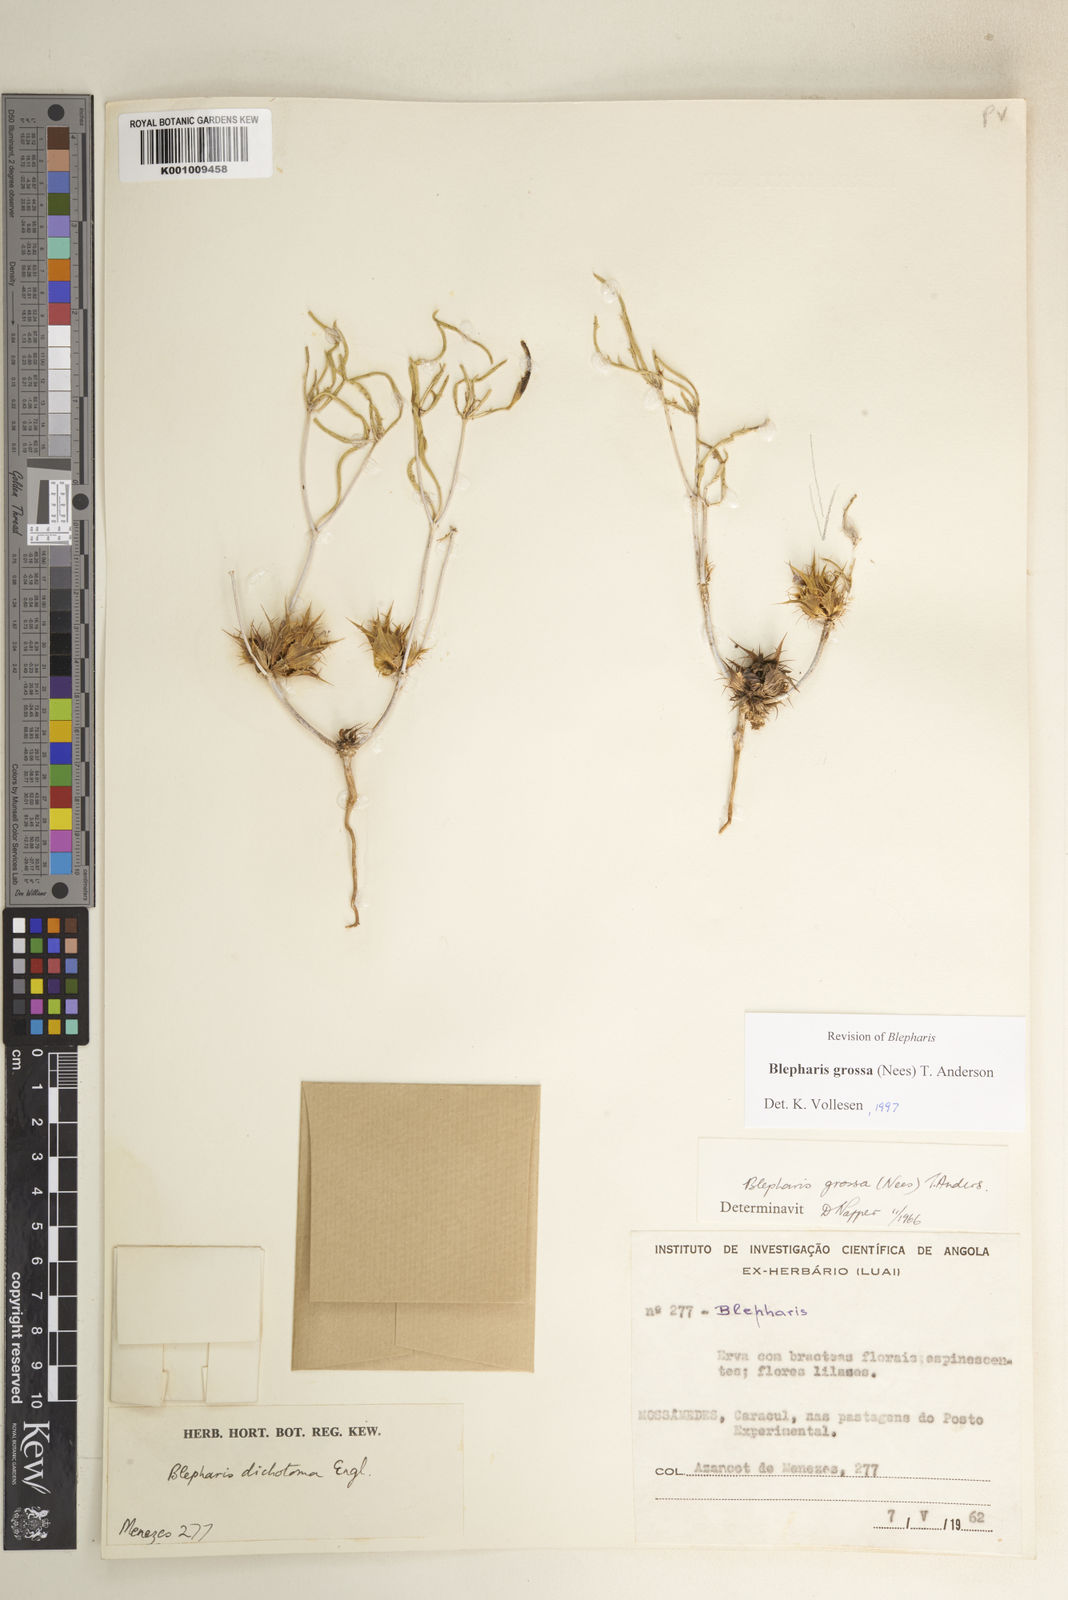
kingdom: Plantae
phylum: Tracheophyta
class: Magnoliopsida
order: Lamiales
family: Acanthaceae
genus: Blepharis
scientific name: Blepharis grossa
